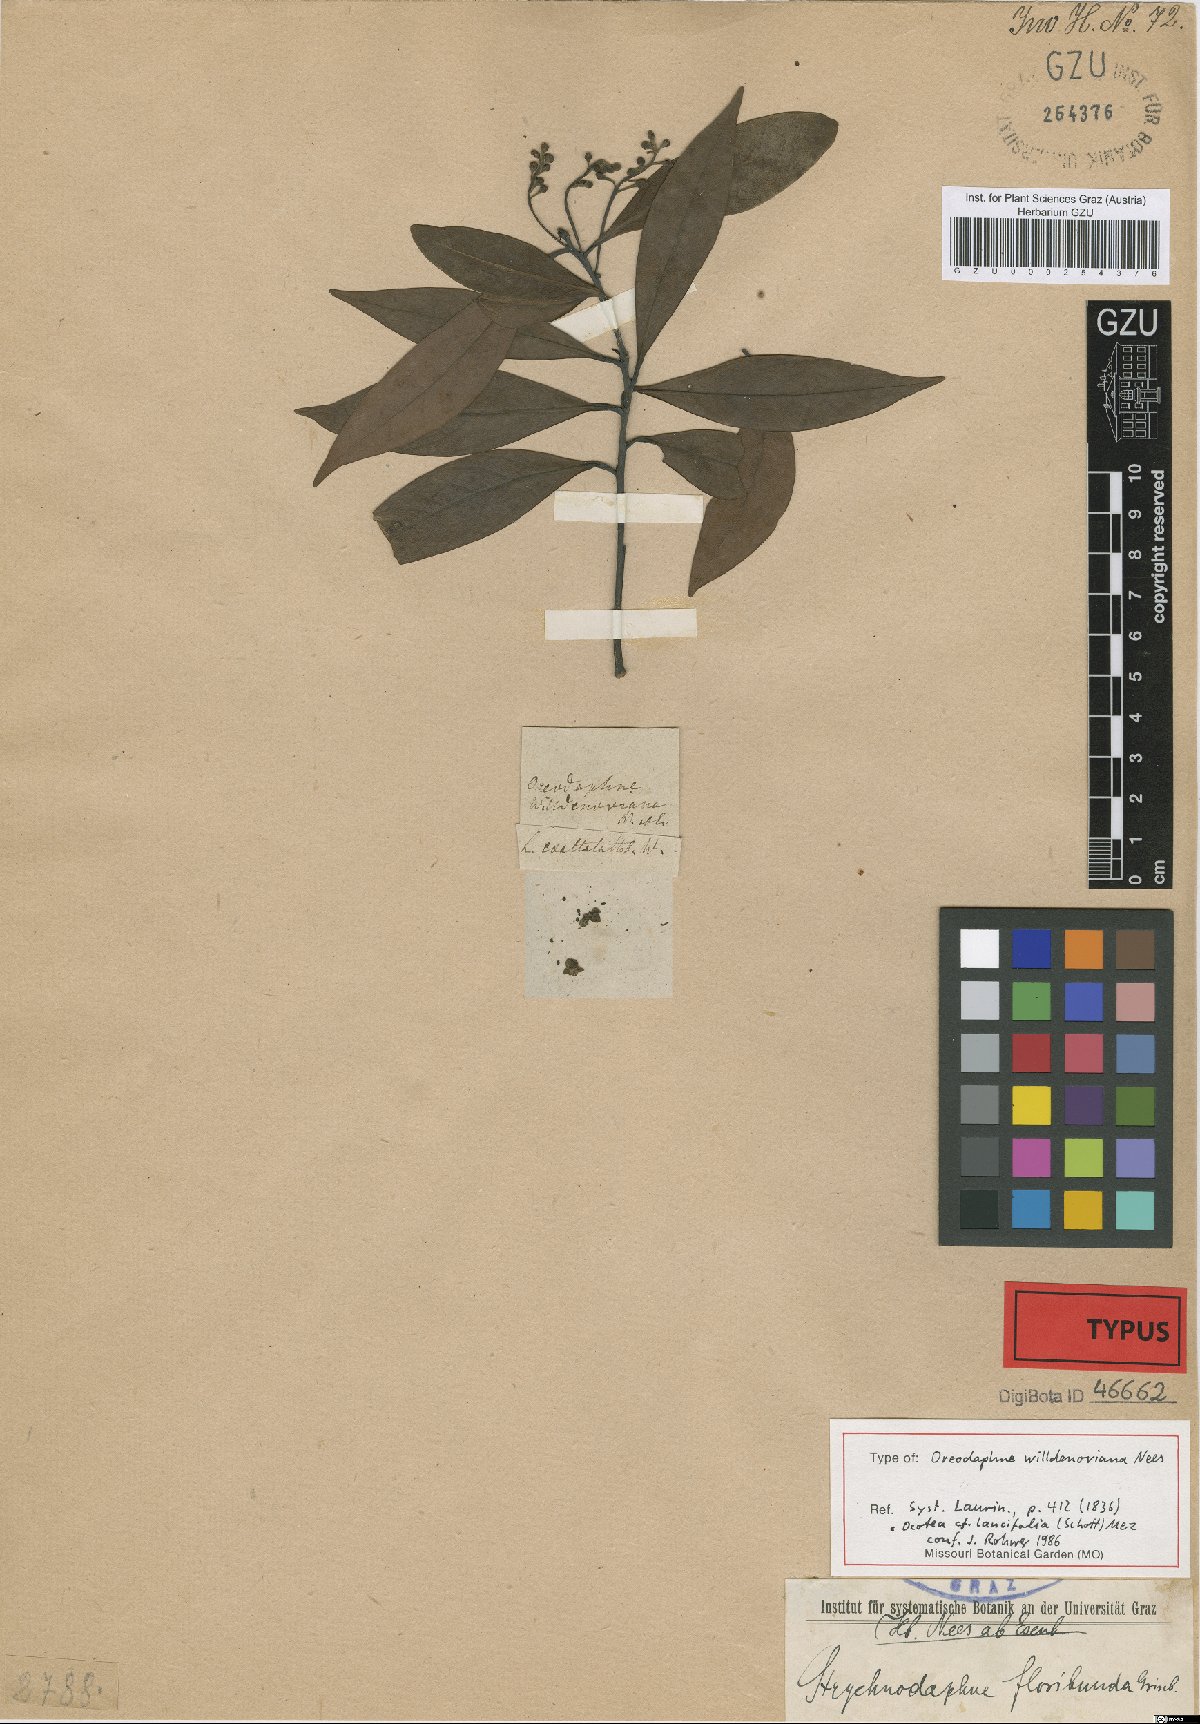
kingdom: Plantae
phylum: Tracheophyta
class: Magnoliopsida
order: Laurales
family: Lauraceae
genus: Ocotea
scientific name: Ocotea floribunda
